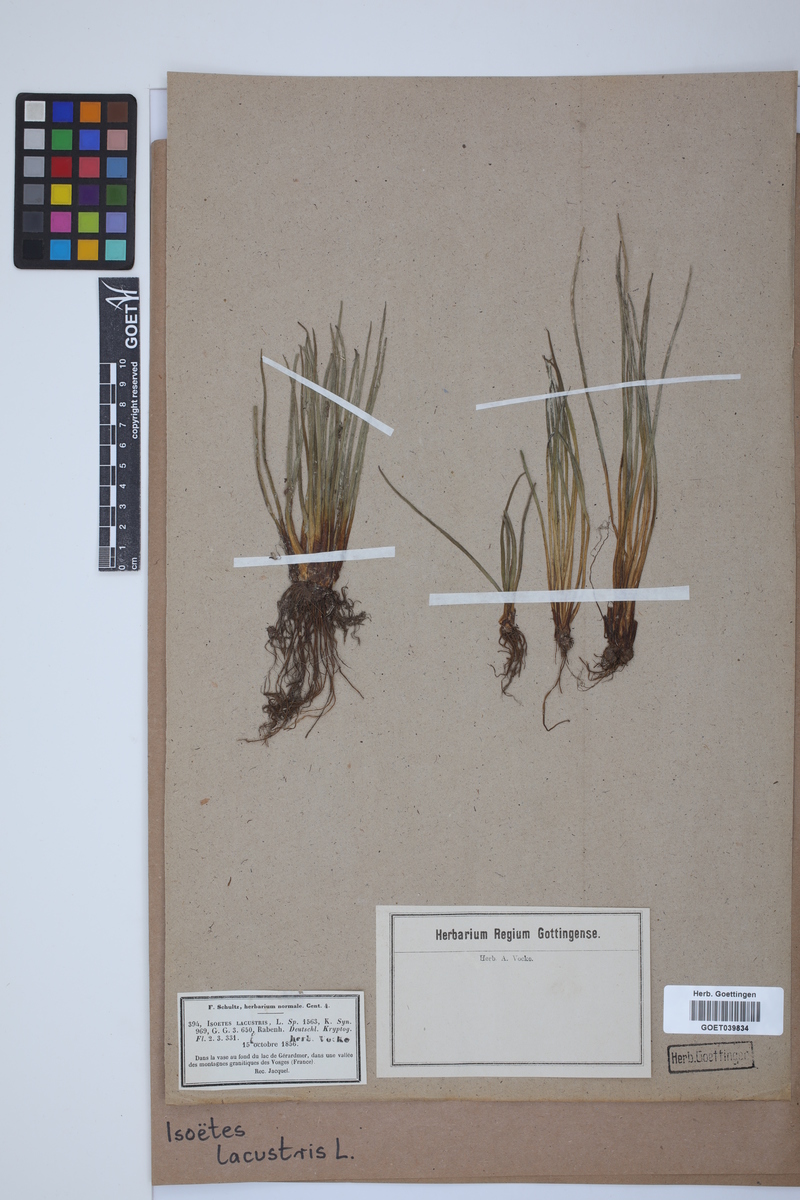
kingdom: Plantae
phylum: Tracheophyta
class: Lycopodiopsida
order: Isoetales
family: Isoetaceae
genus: Isoetes
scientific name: Isoetes lacustris
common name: Common quillwort
